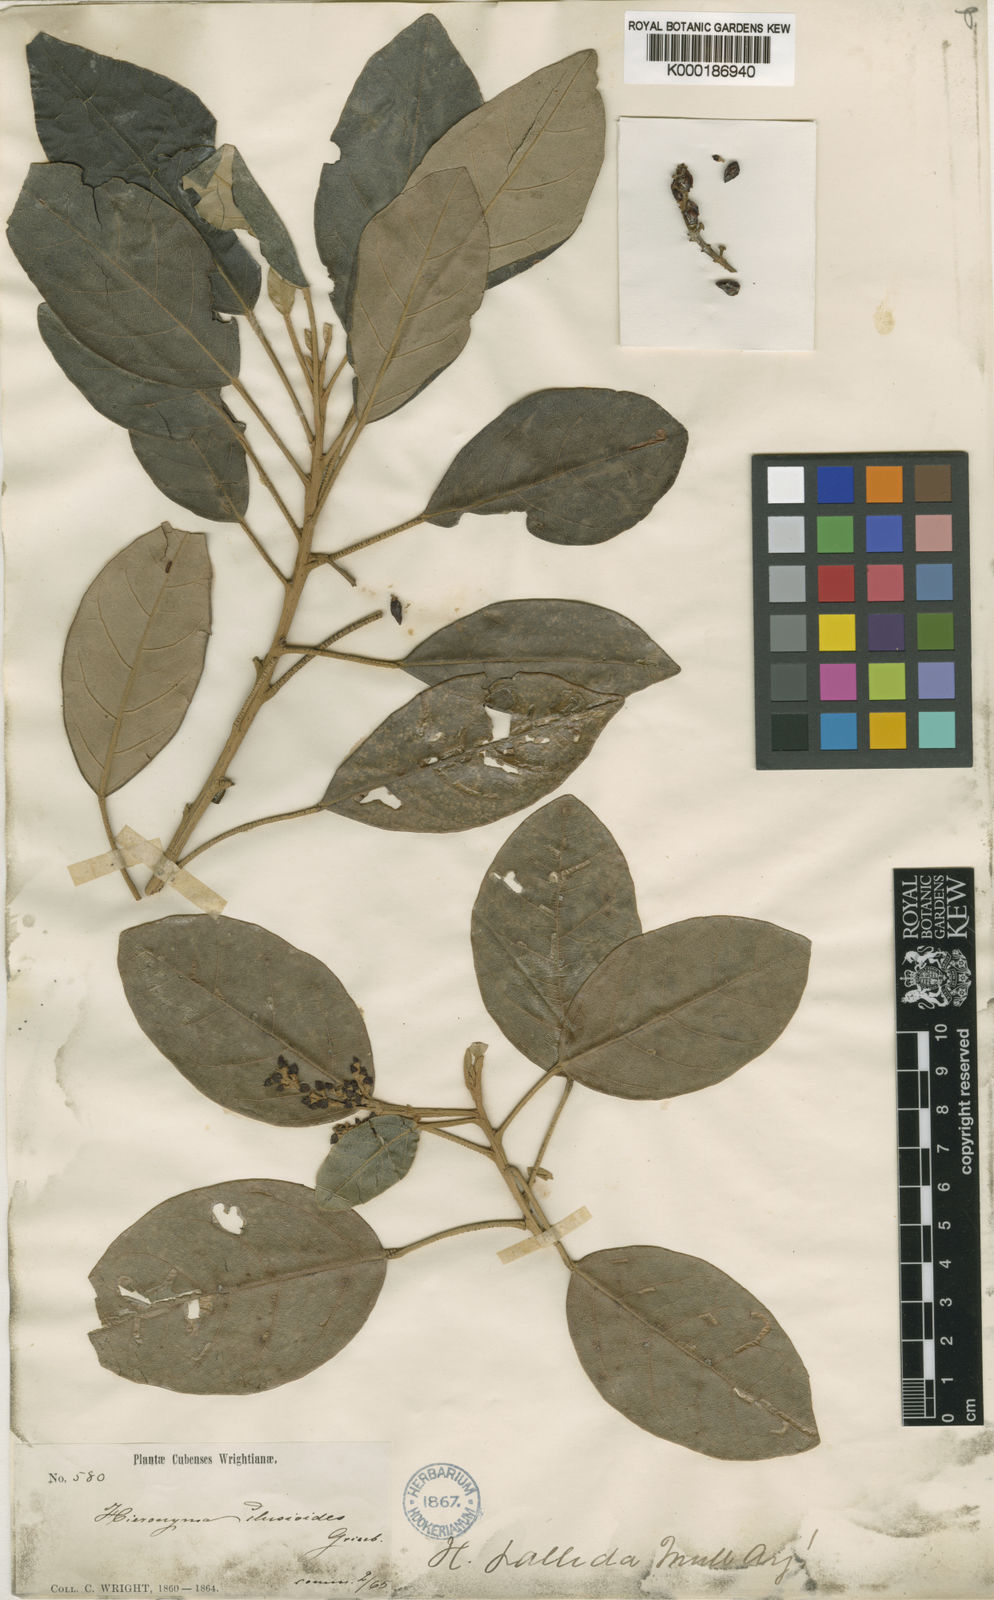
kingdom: Plantae
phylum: Tracheophyta
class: Magnoliopsida
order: Malpighiales
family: Phyllanthaceae
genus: Hieronyma
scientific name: Hieronyma
